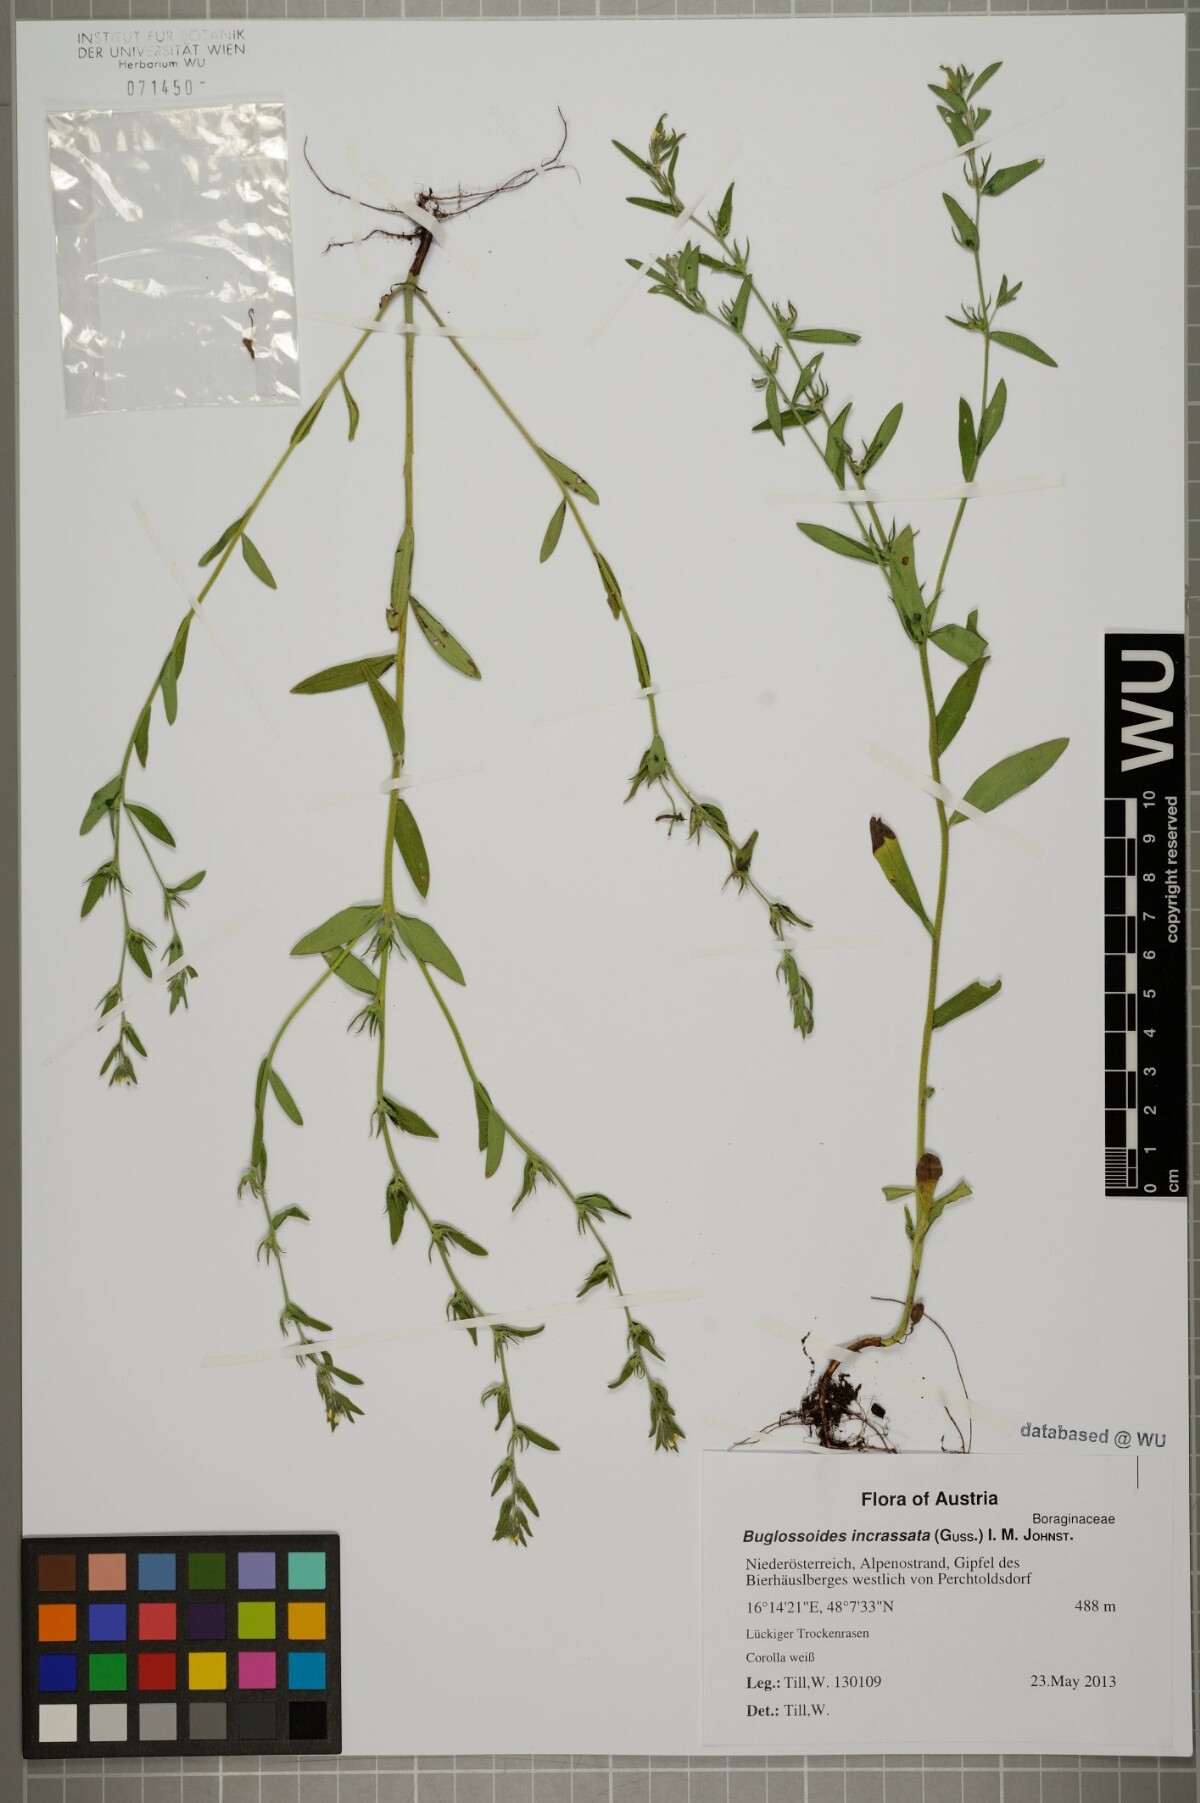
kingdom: Plantae
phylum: Tracheophyta
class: Magnoliopsida
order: Boraginales
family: Boraginaceae
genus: Buglossoides
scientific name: Buglossoides incrassata
